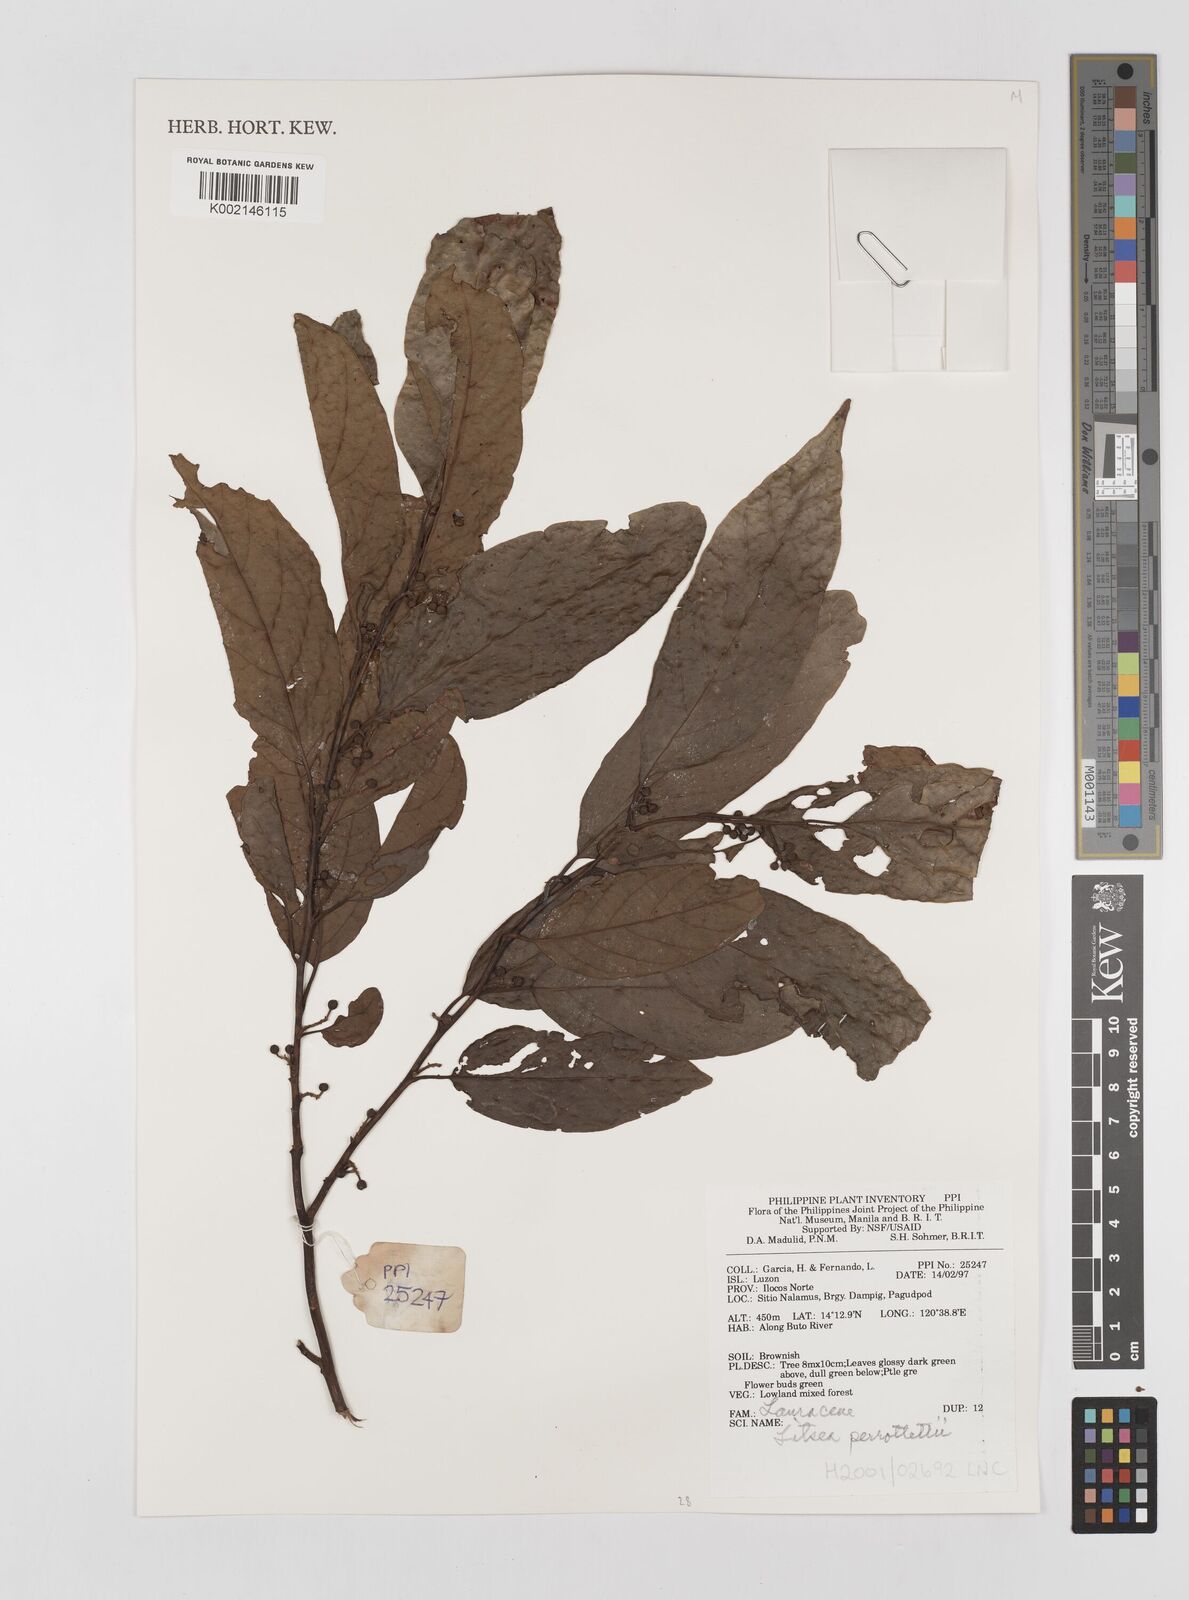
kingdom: Plantae
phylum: Tracheophyta
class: Magnoliopsida
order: Laurales
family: Lauraceae
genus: Litsea
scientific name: Litsea cordata
